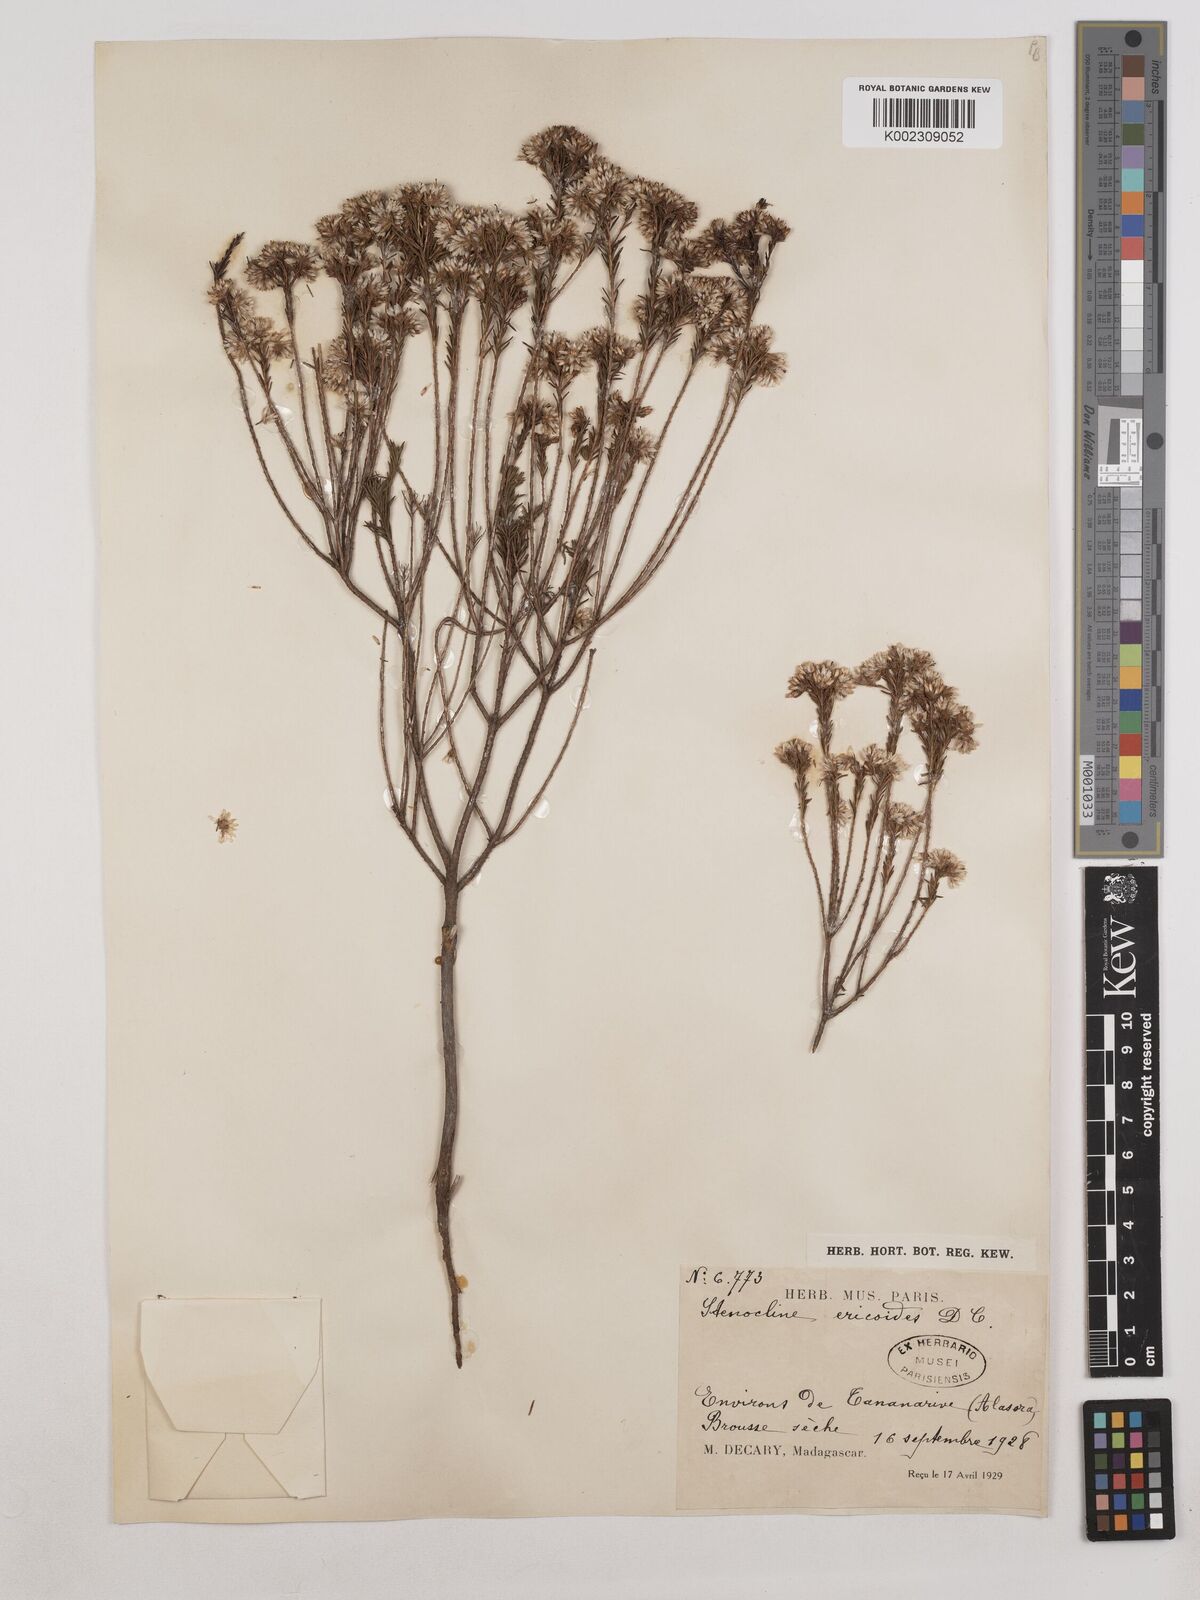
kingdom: Plantae
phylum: Tracheophyta
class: Magnoliopsida
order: Asterales
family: Asteraceae
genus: Stenocline
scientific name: Stenocline ericoides
